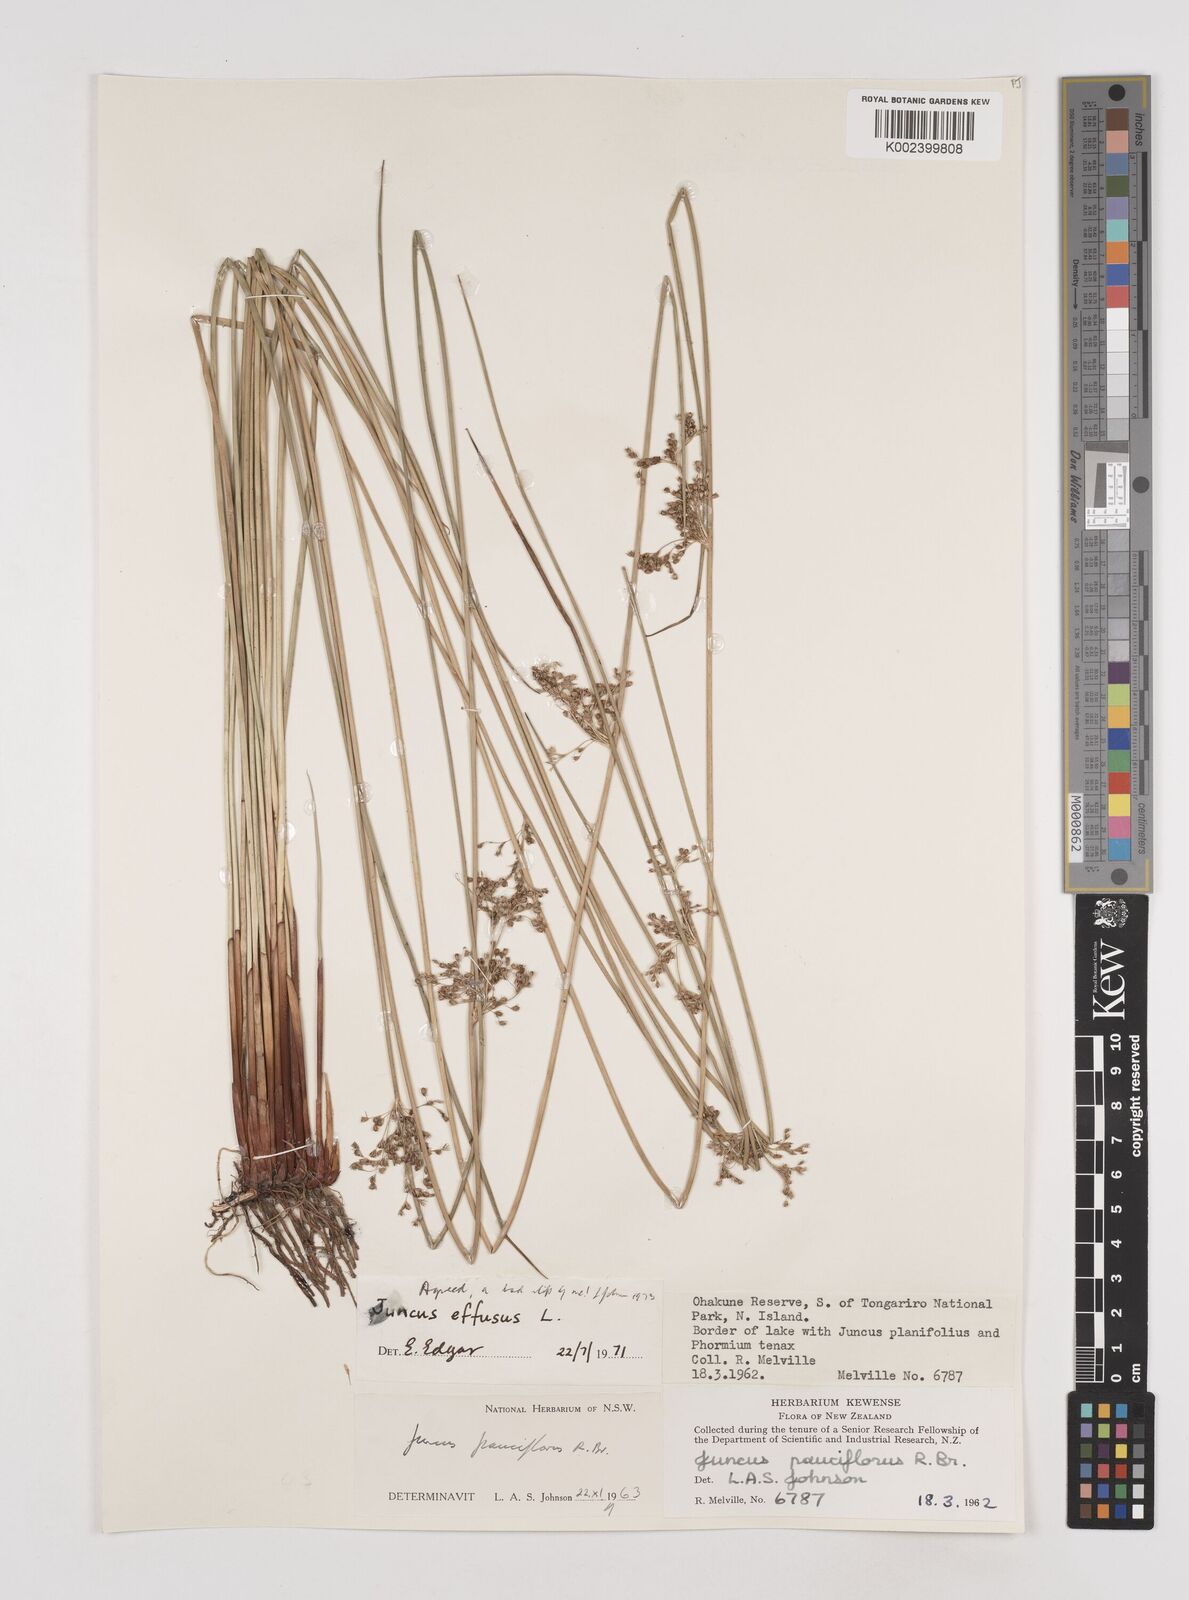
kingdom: Plantae
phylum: Tracheophyta
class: Liliopsida
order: Poales
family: Juncaceae
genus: Juncus
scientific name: Juncus effusus
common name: Soft rush
